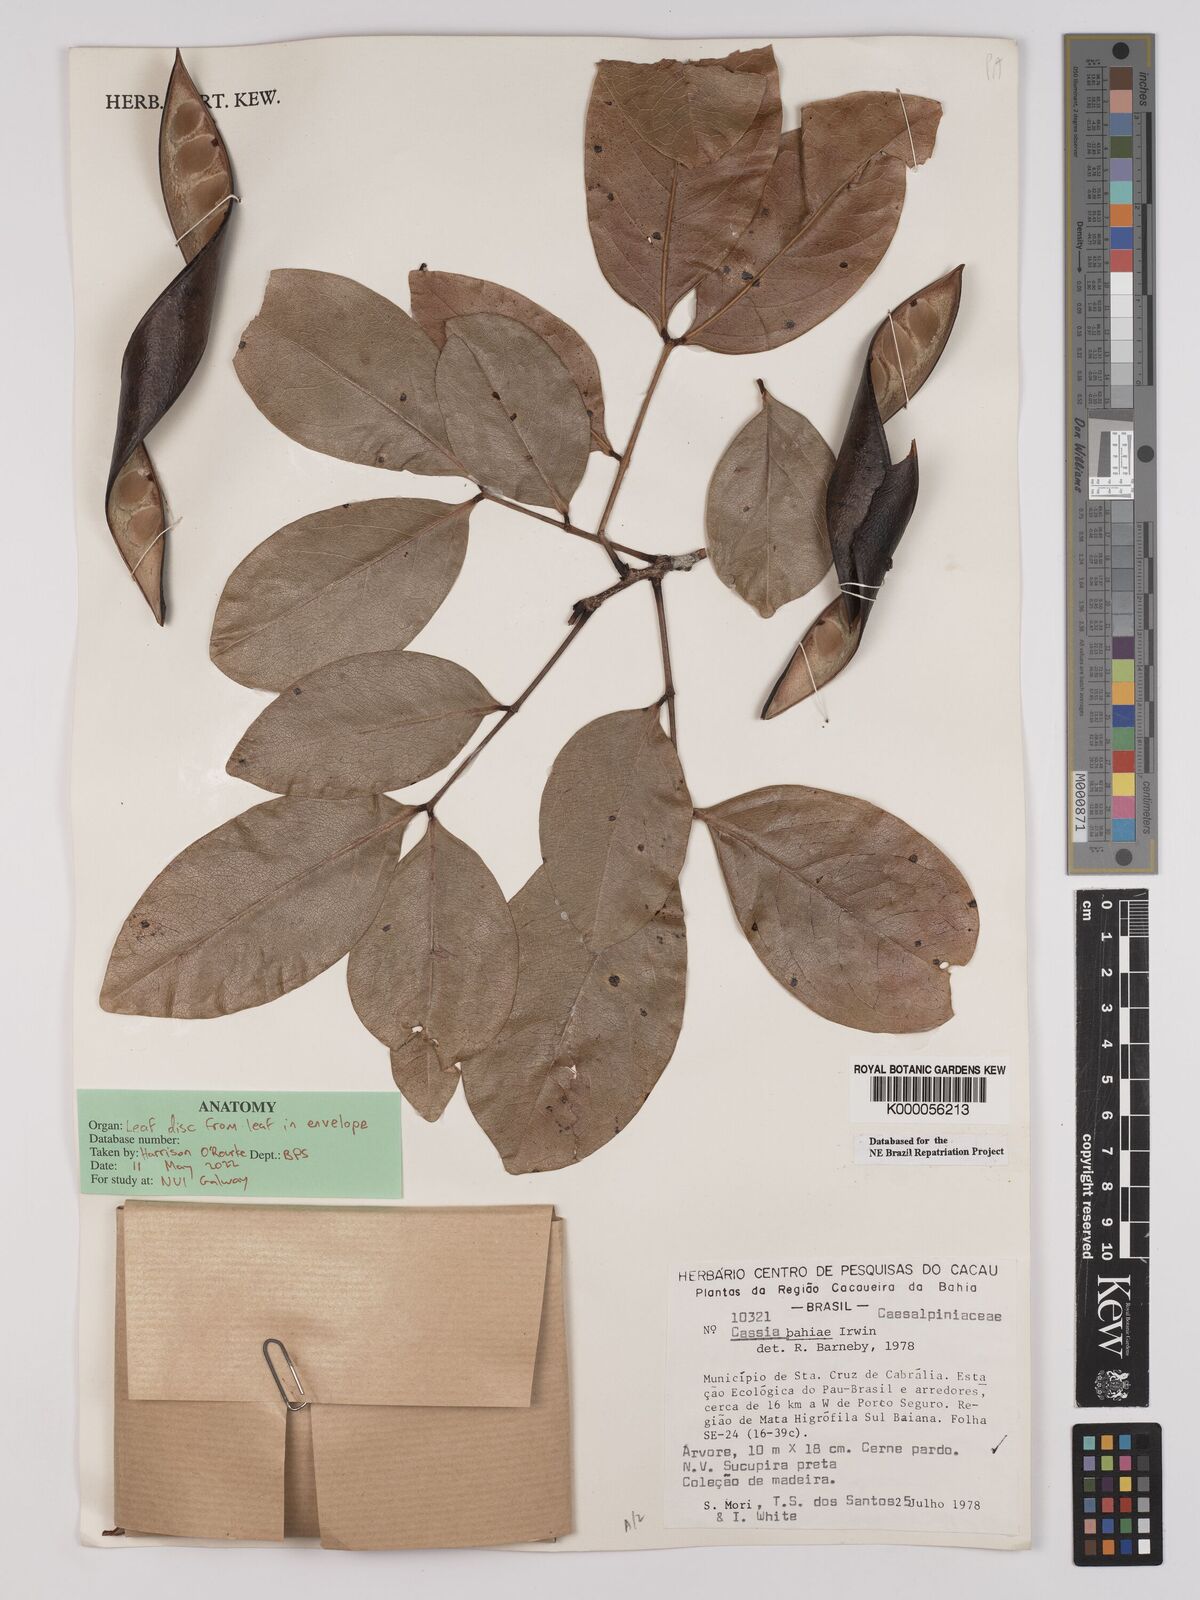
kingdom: Plantae
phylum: Tracheophyta
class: Magnoliopsida
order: Fabales
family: Fabaceae
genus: Chamaecrista
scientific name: Chamaecrista bahiae
